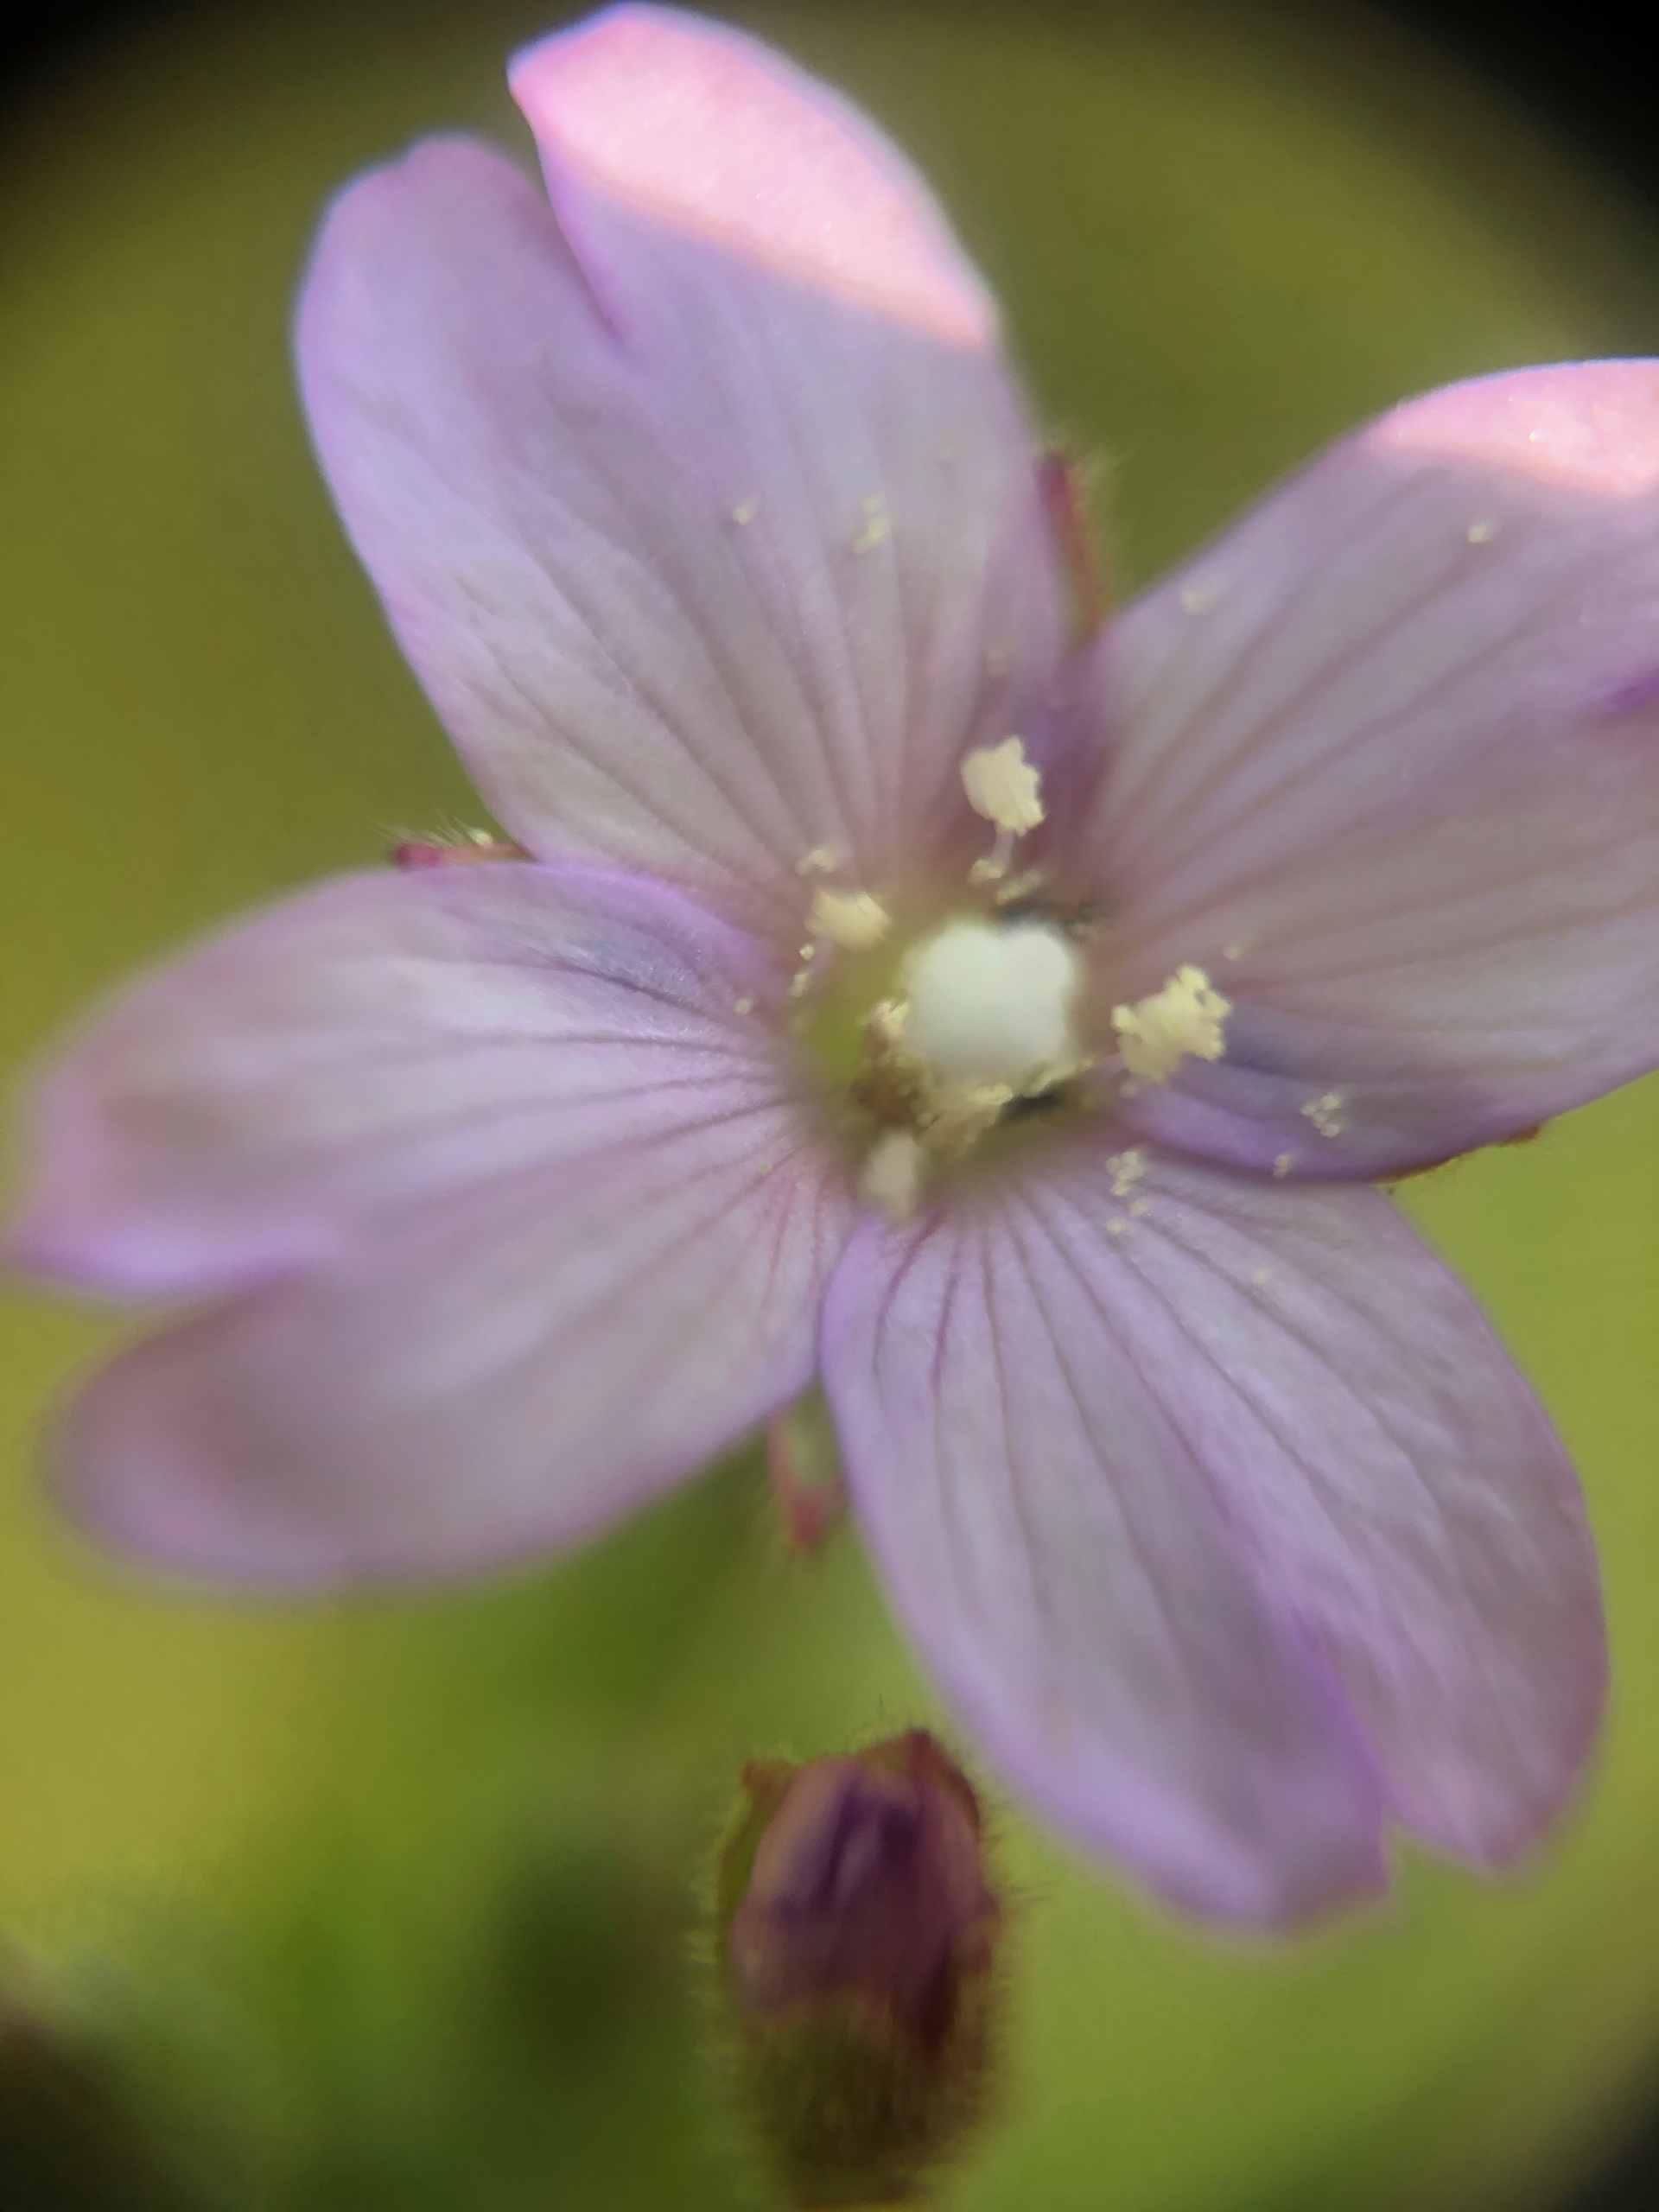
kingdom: Plantae
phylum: Tracheophyta
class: Magnoliopsida
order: Myrtales
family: Onagraceae
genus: Epilobium
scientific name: Epilobium parviflorum
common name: Dunet dueurt
